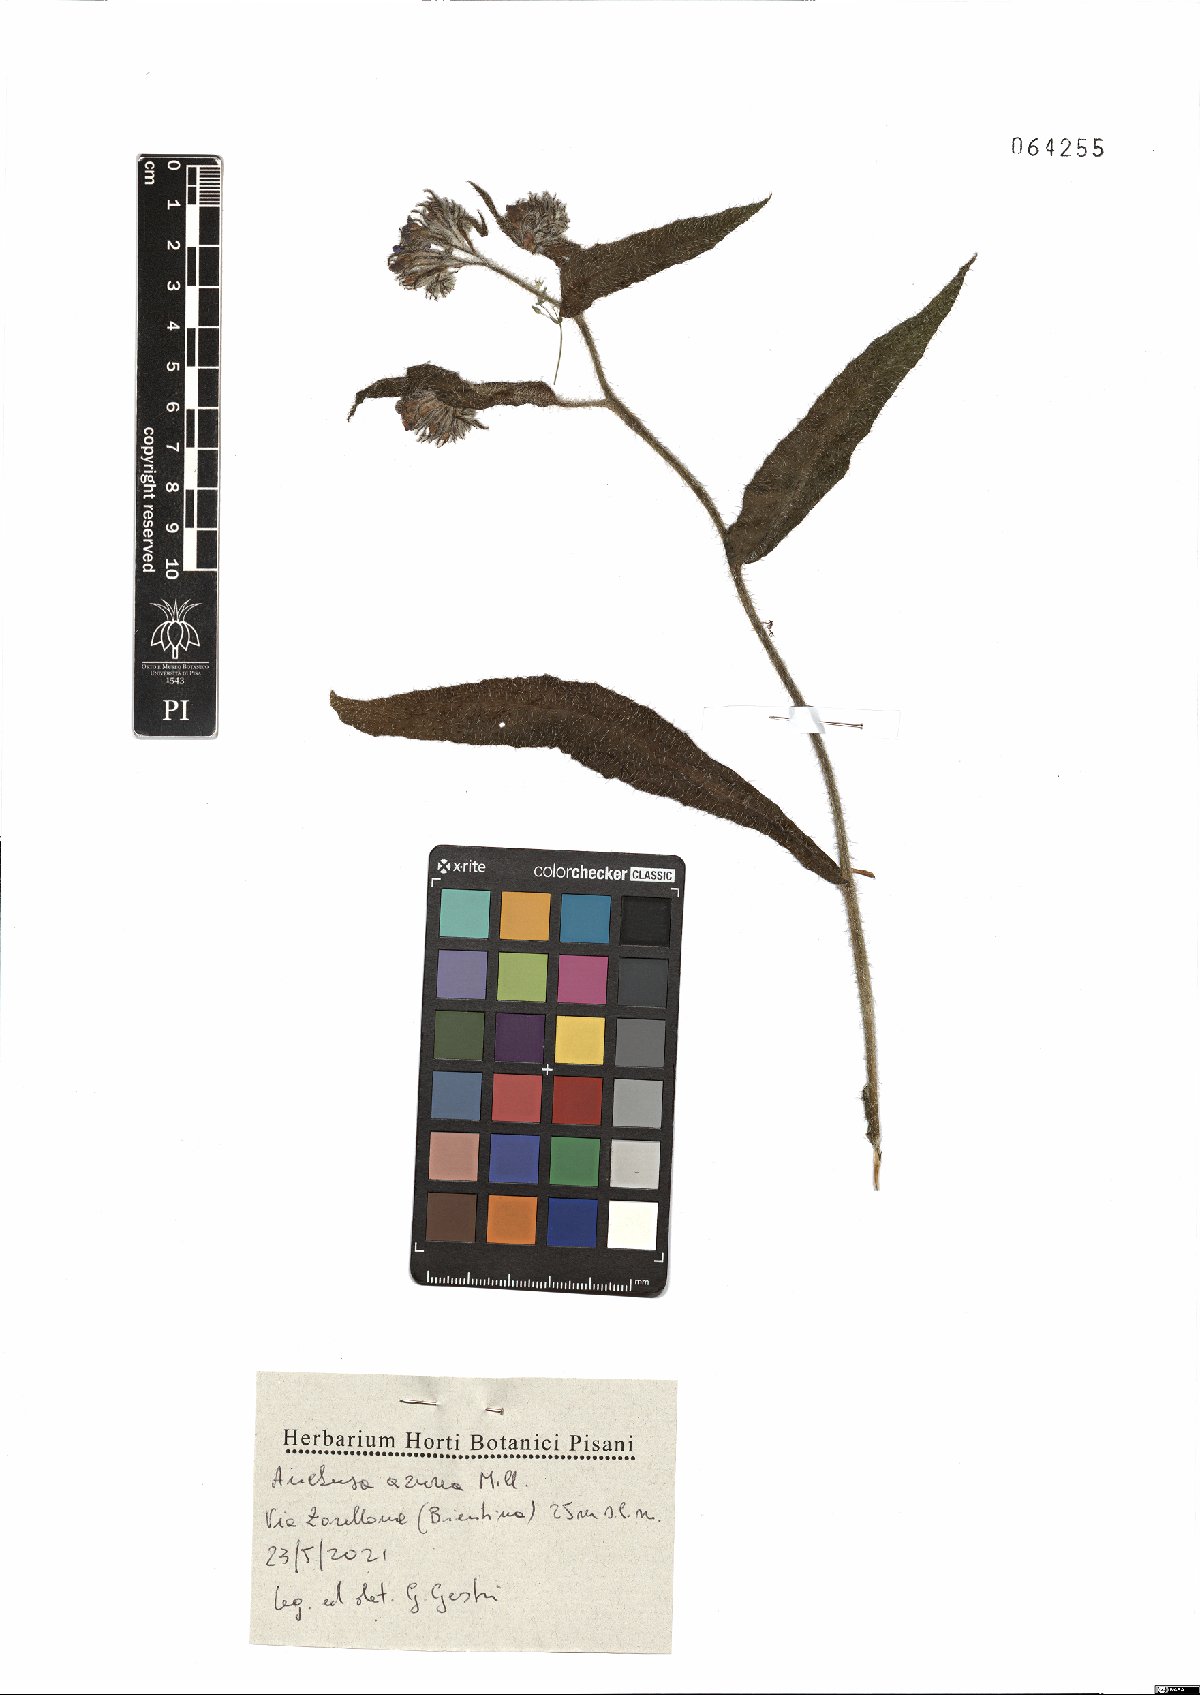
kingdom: Plantae
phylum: Tracheophyta
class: Magnoliopsida
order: Boraginales
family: Boraginaceae
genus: Anchusa
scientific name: Anchusa azurea
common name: Garden anchusa
